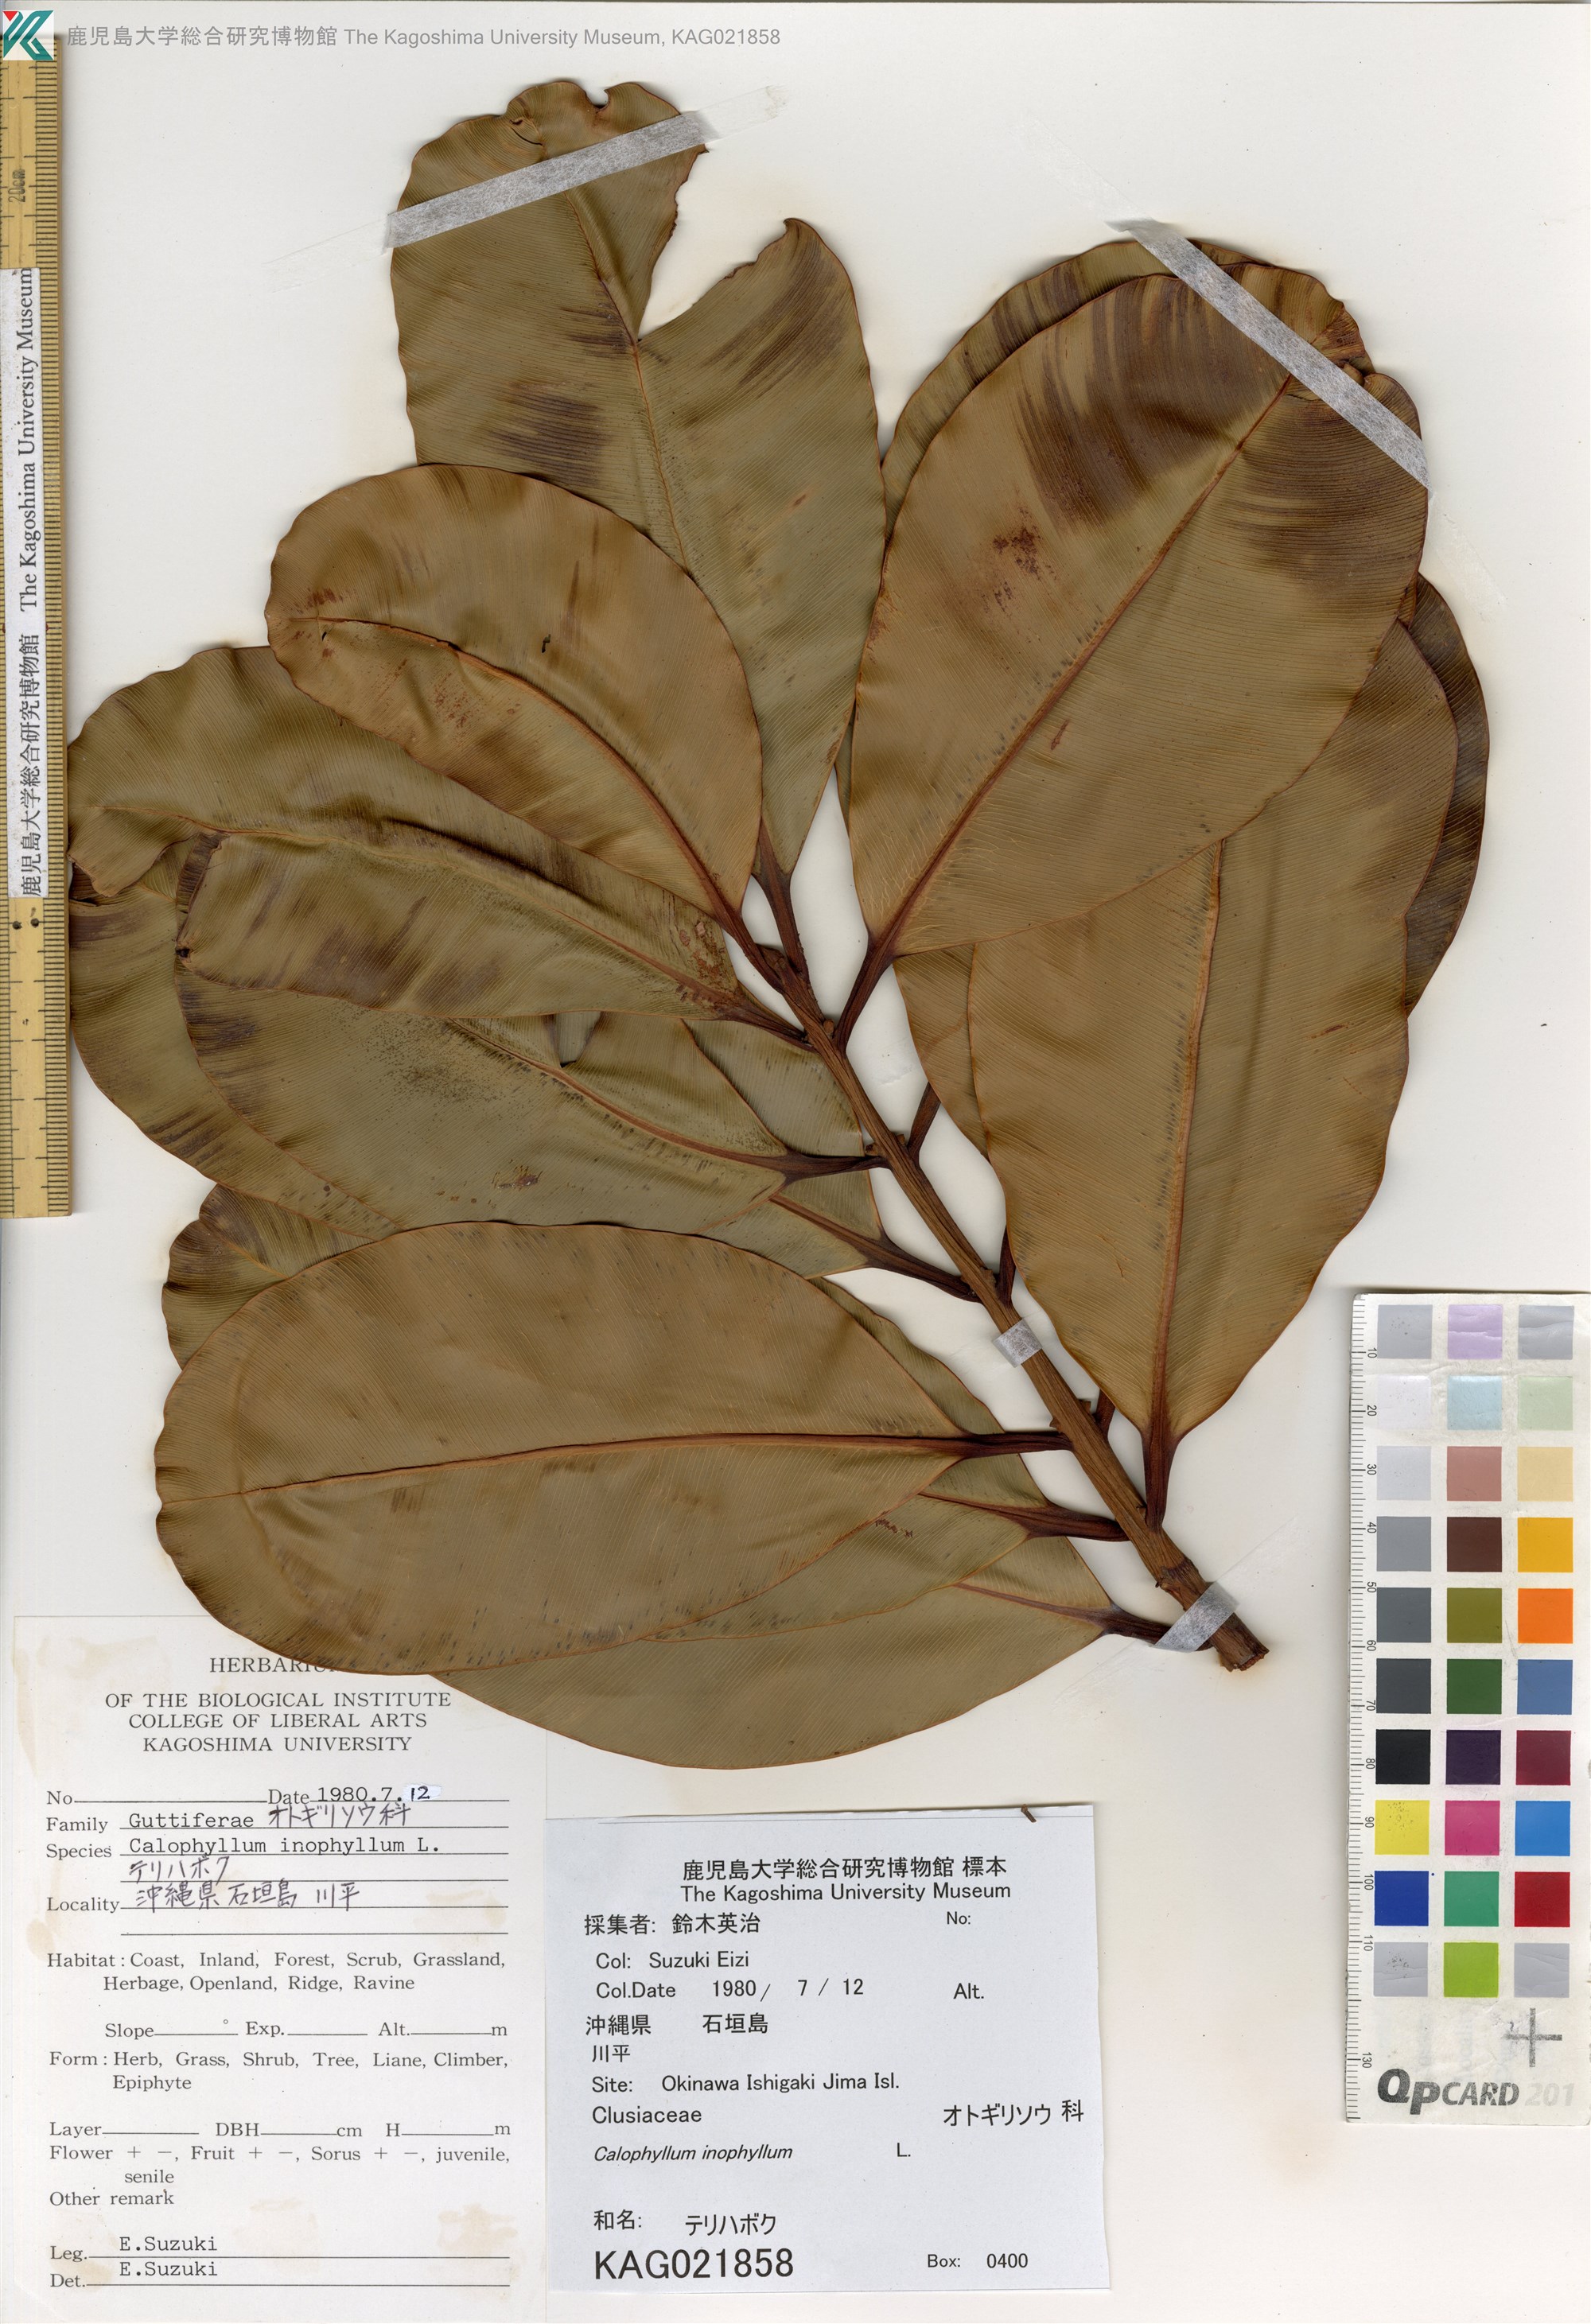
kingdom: Plantae
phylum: Tracheophyta
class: Magnoliopsida
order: Malpighiales
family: Calophyllaceae
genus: Calophyllum
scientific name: Calophyllum inophyllum
